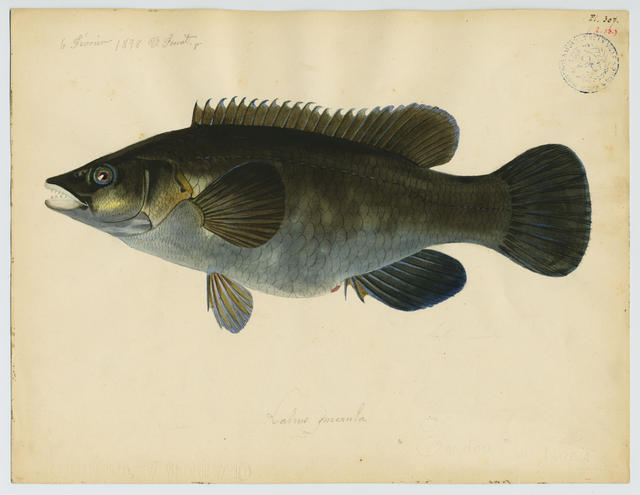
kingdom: Animalia
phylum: Chordata
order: Perciformes
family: Labridae
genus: Labrus
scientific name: Labrus merula
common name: Brown wrasse
